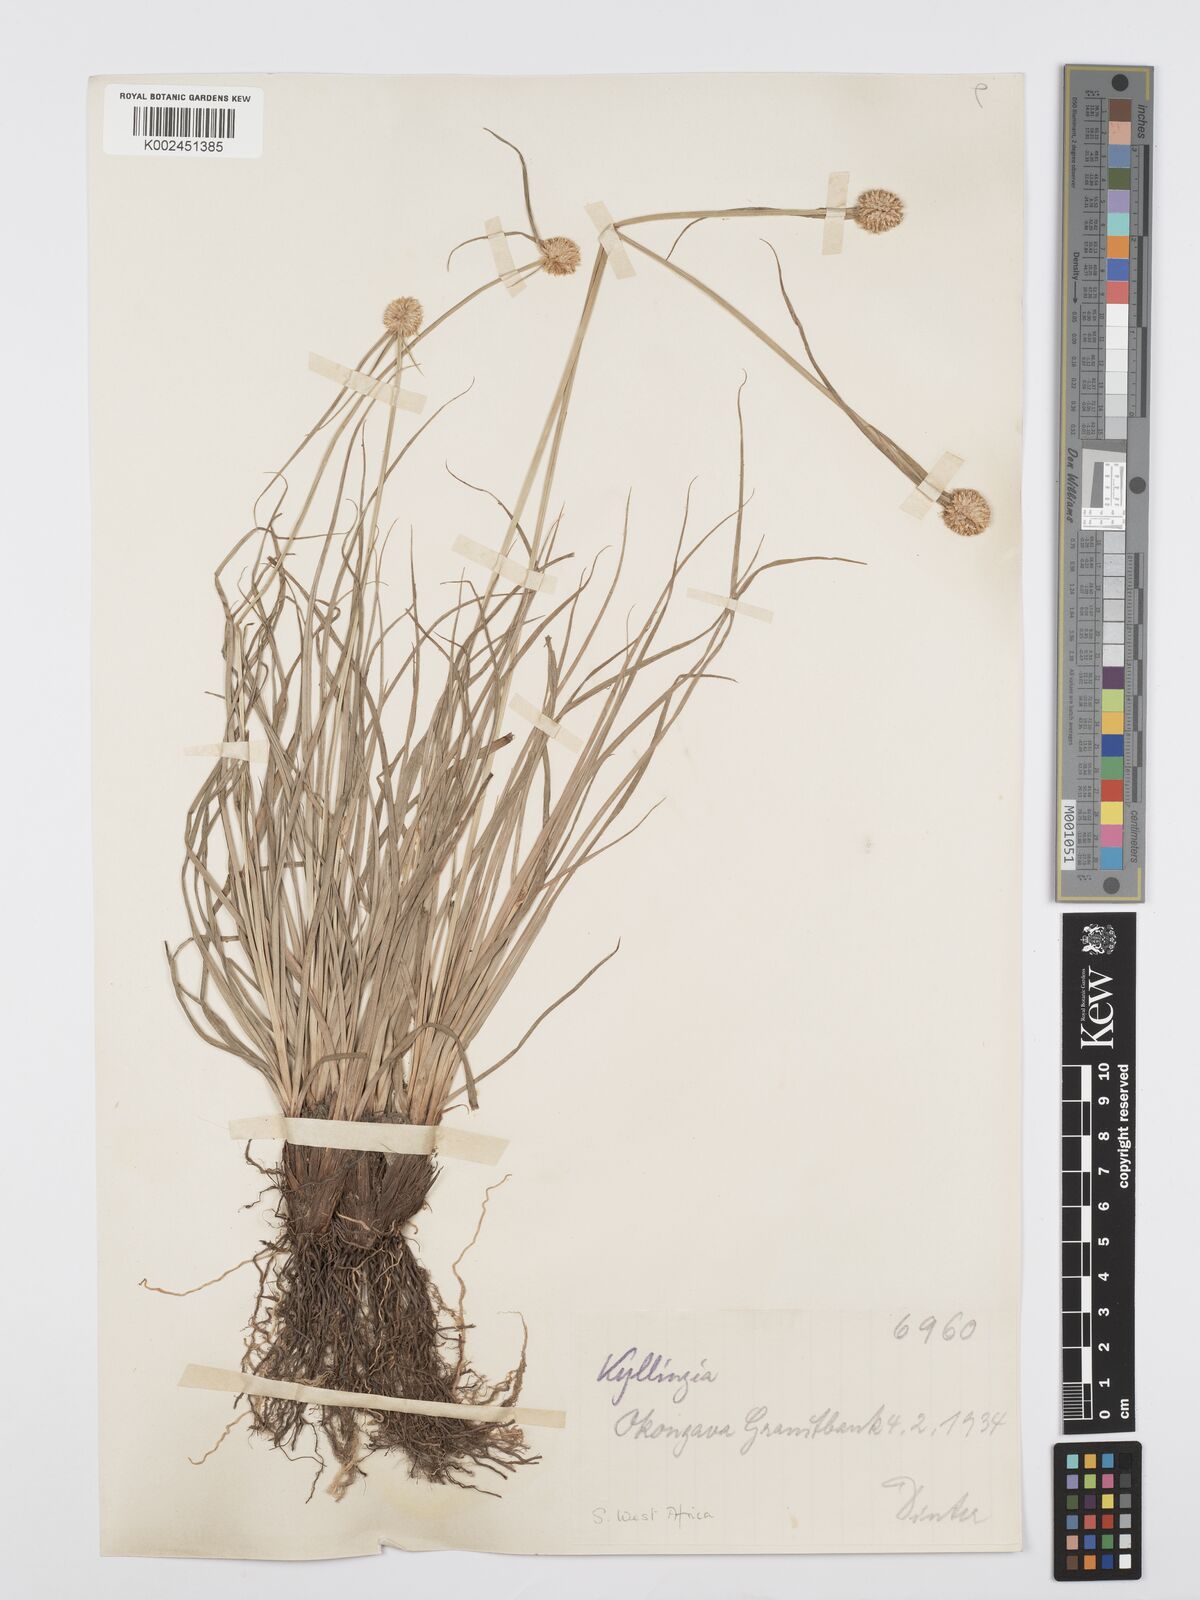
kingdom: Plantae
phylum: Tracheophyta
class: Liliopsida
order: Poales
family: Cyperaceae
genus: Cyperus
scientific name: Cyperus alatus
